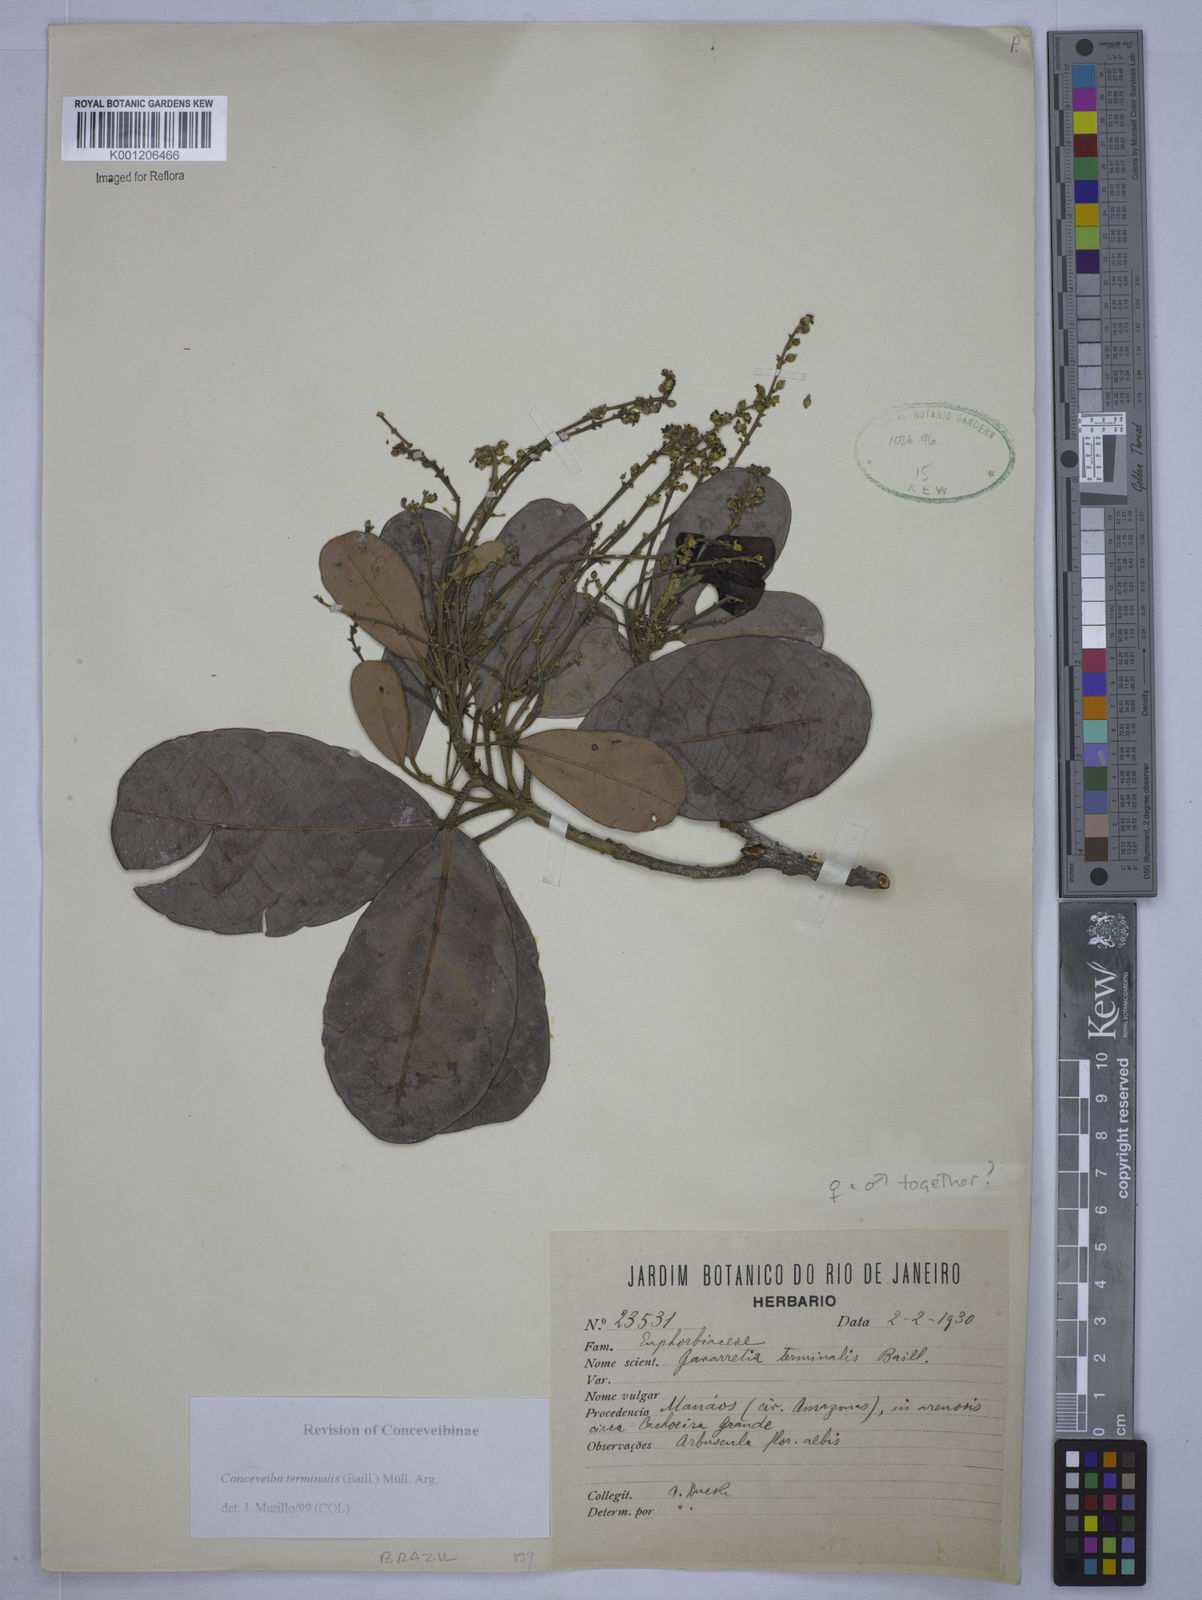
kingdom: Plantae
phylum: Tracheophyta
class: Magnoliopsida
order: Malpighiales
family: Euphorbiaceae
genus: Conceveiba
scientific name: Conceveiba
